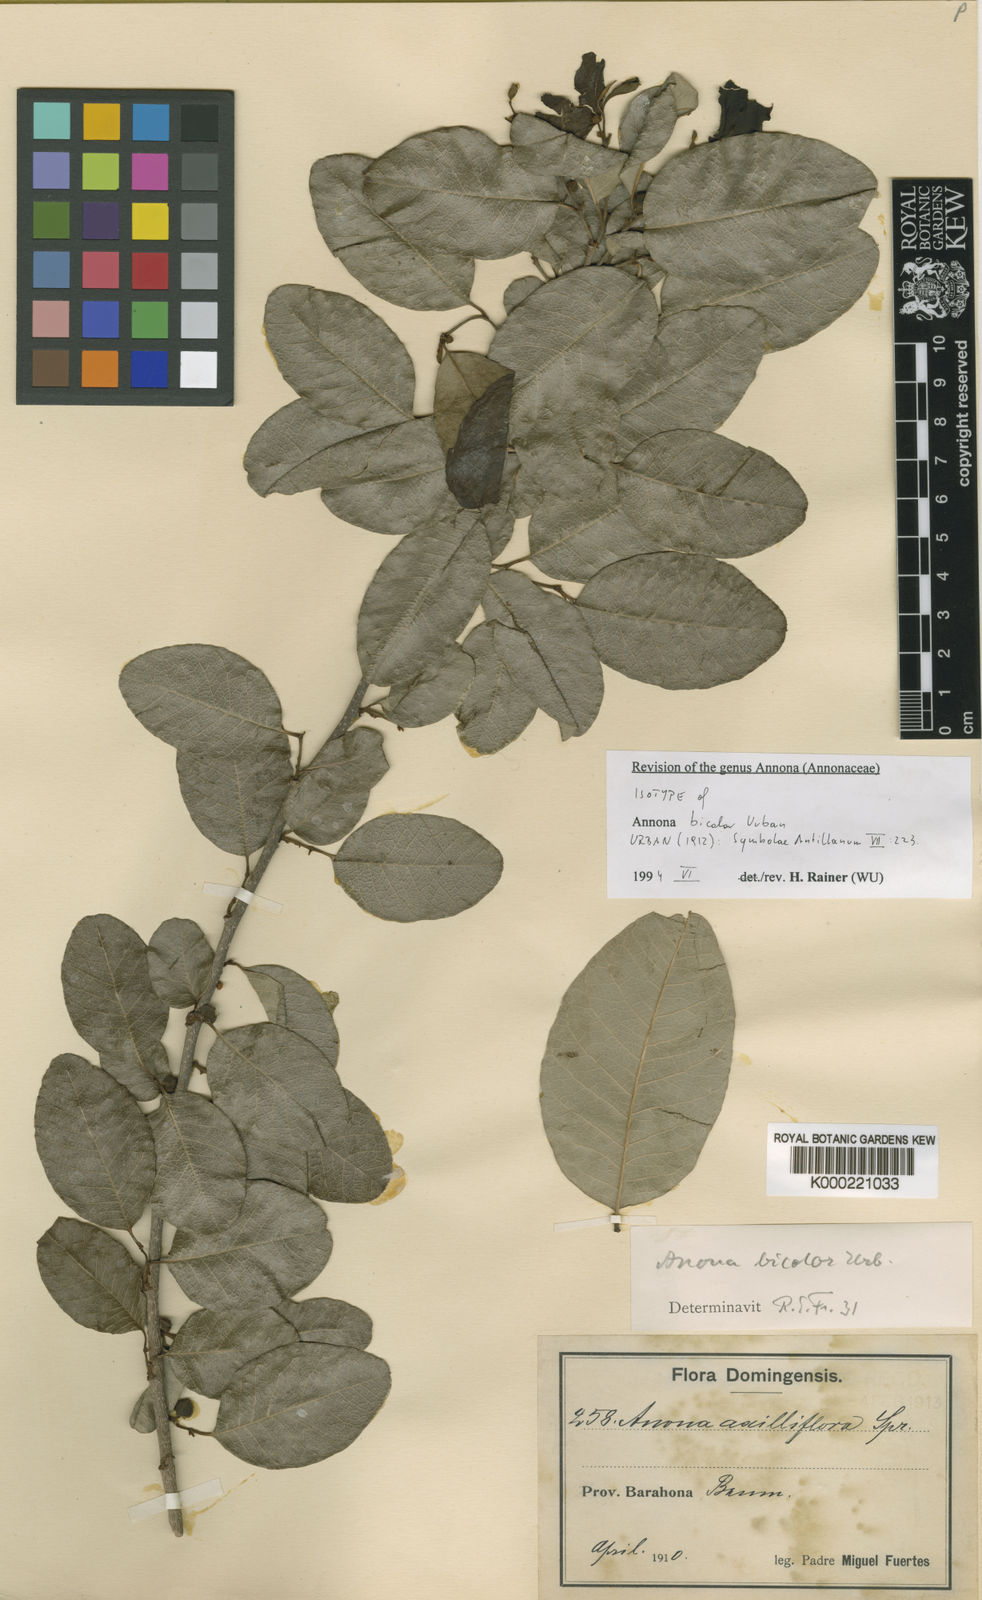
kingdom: Plantae
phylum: Tracheophyta
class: Magnoliopsida
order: Magnoliales
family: Annonaceae
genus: Annona
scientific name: Annona bicolor
